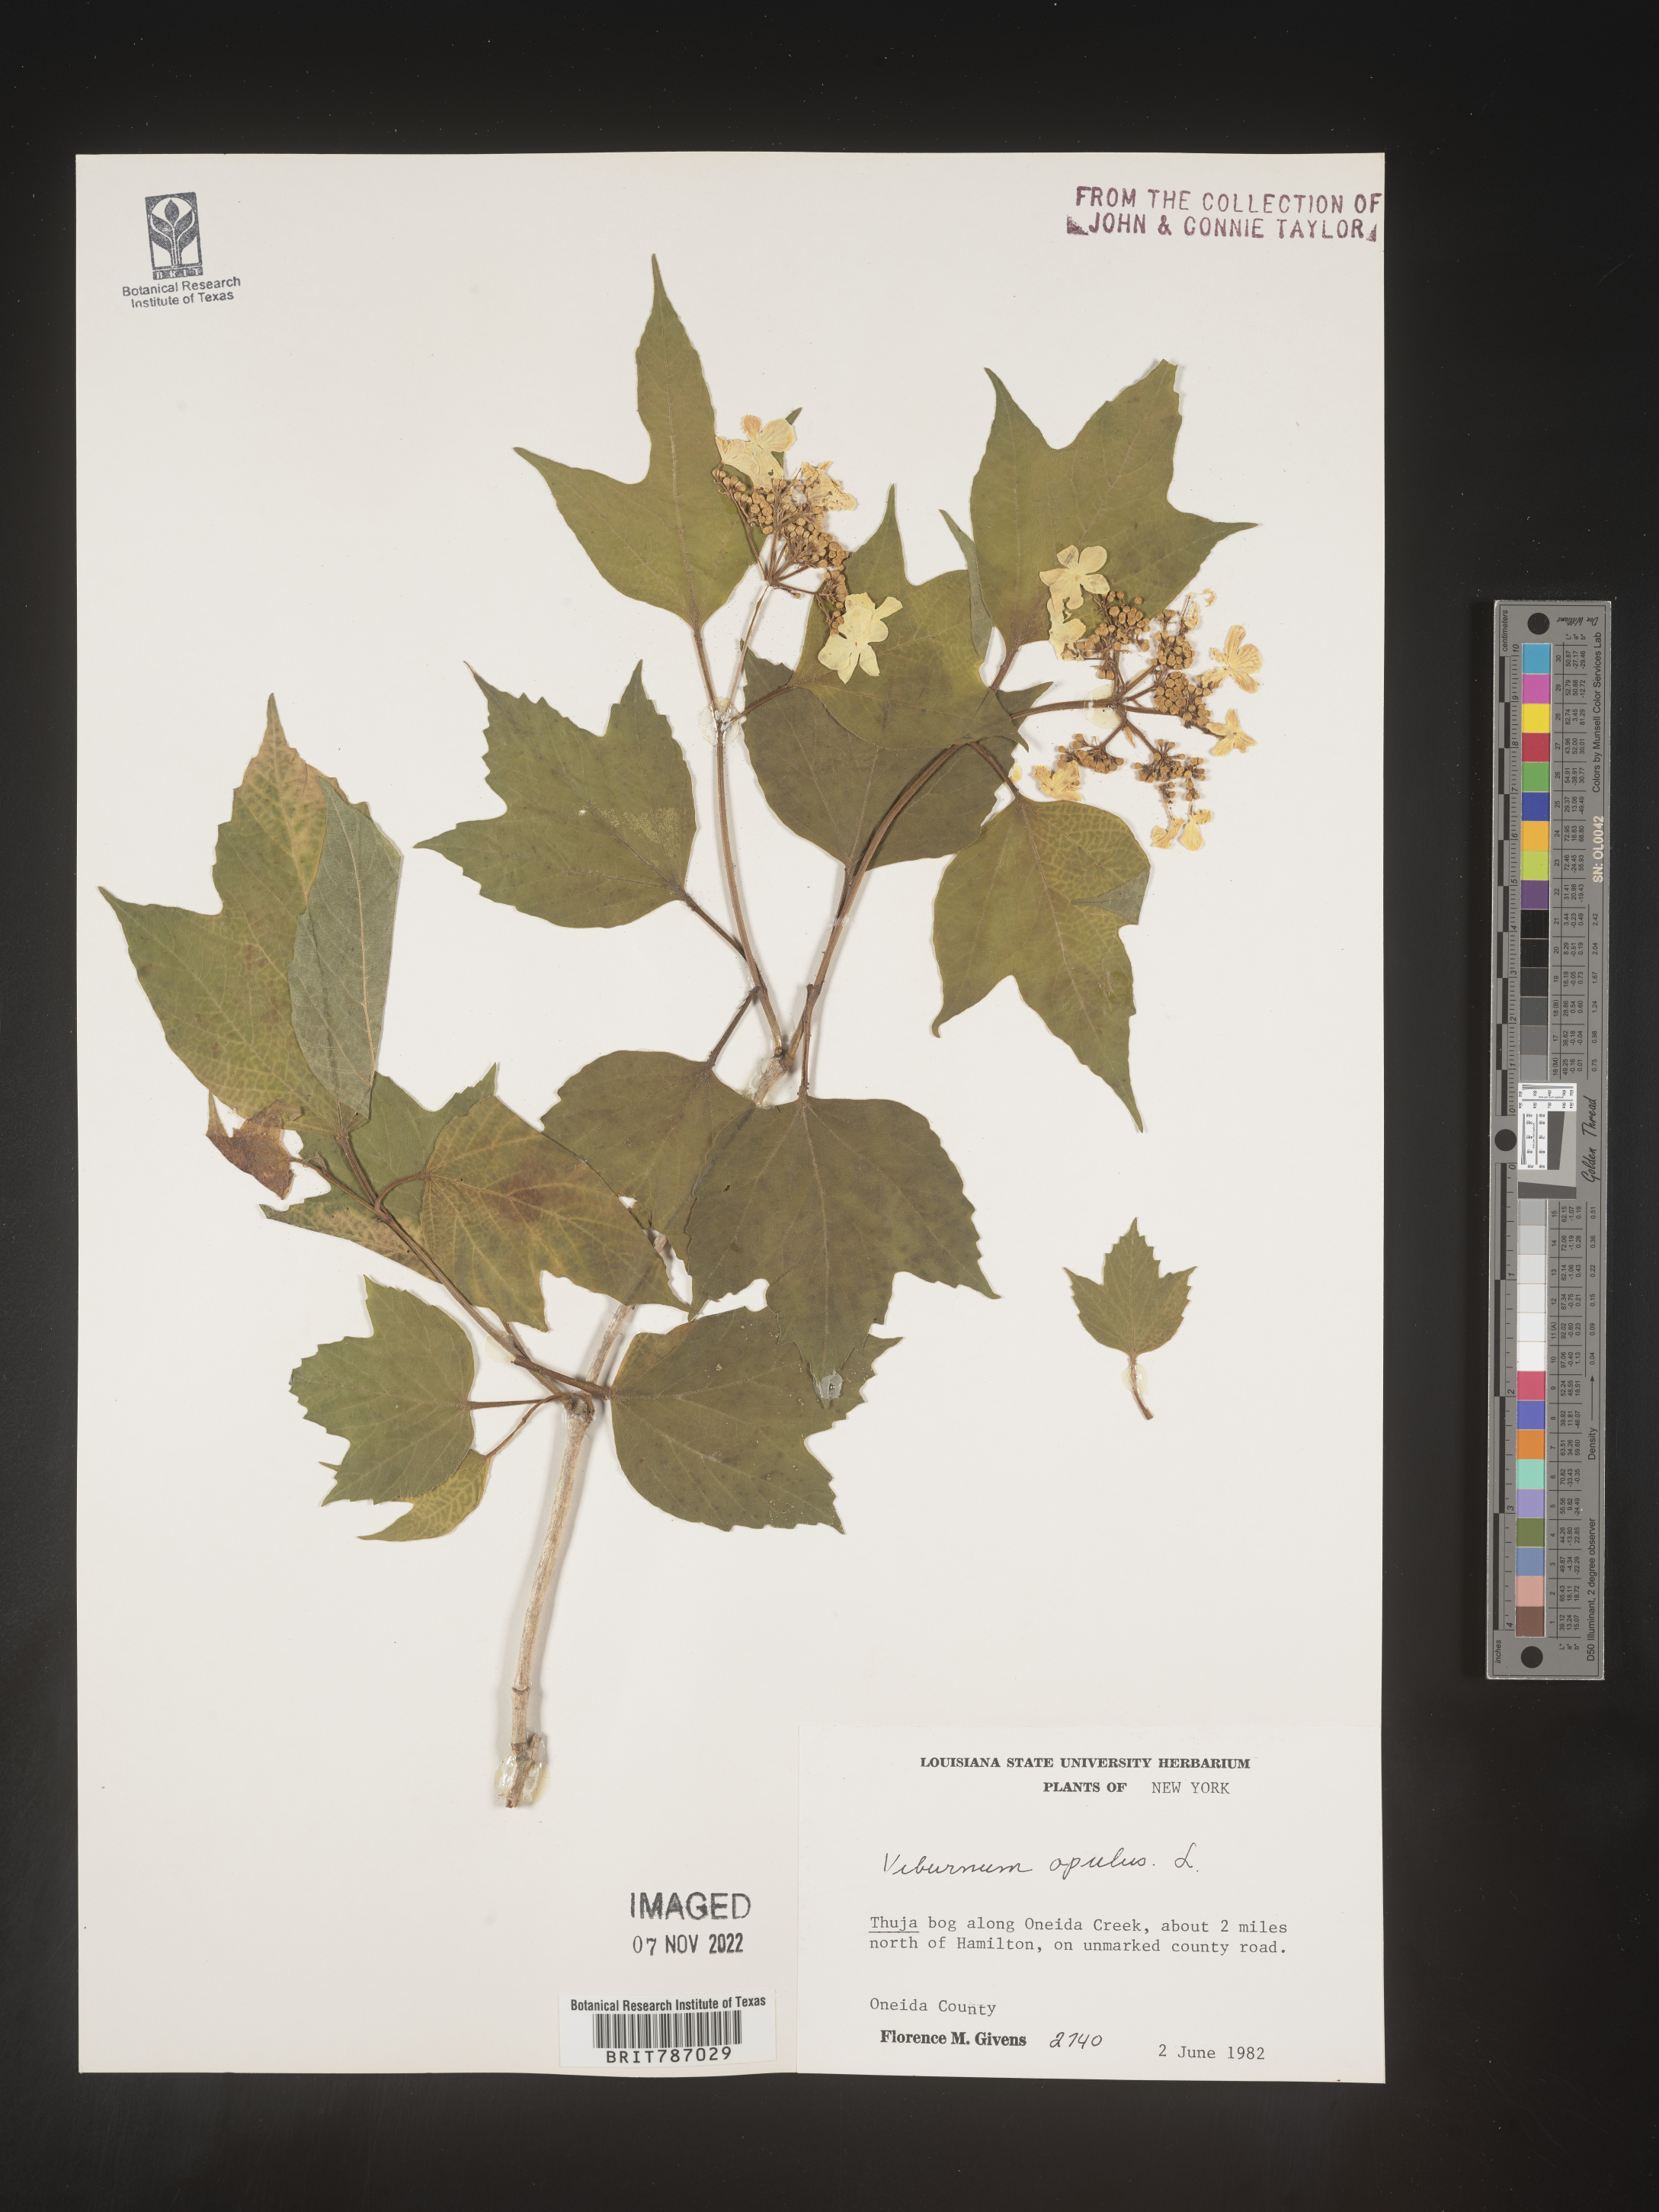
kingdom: Plantae
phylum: Tracheophyta
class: Magnoliopsida
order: Dipsacales
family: Viburnaceae
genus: Viburnum
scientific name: Viburnum opulus
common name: Guelder-rose
